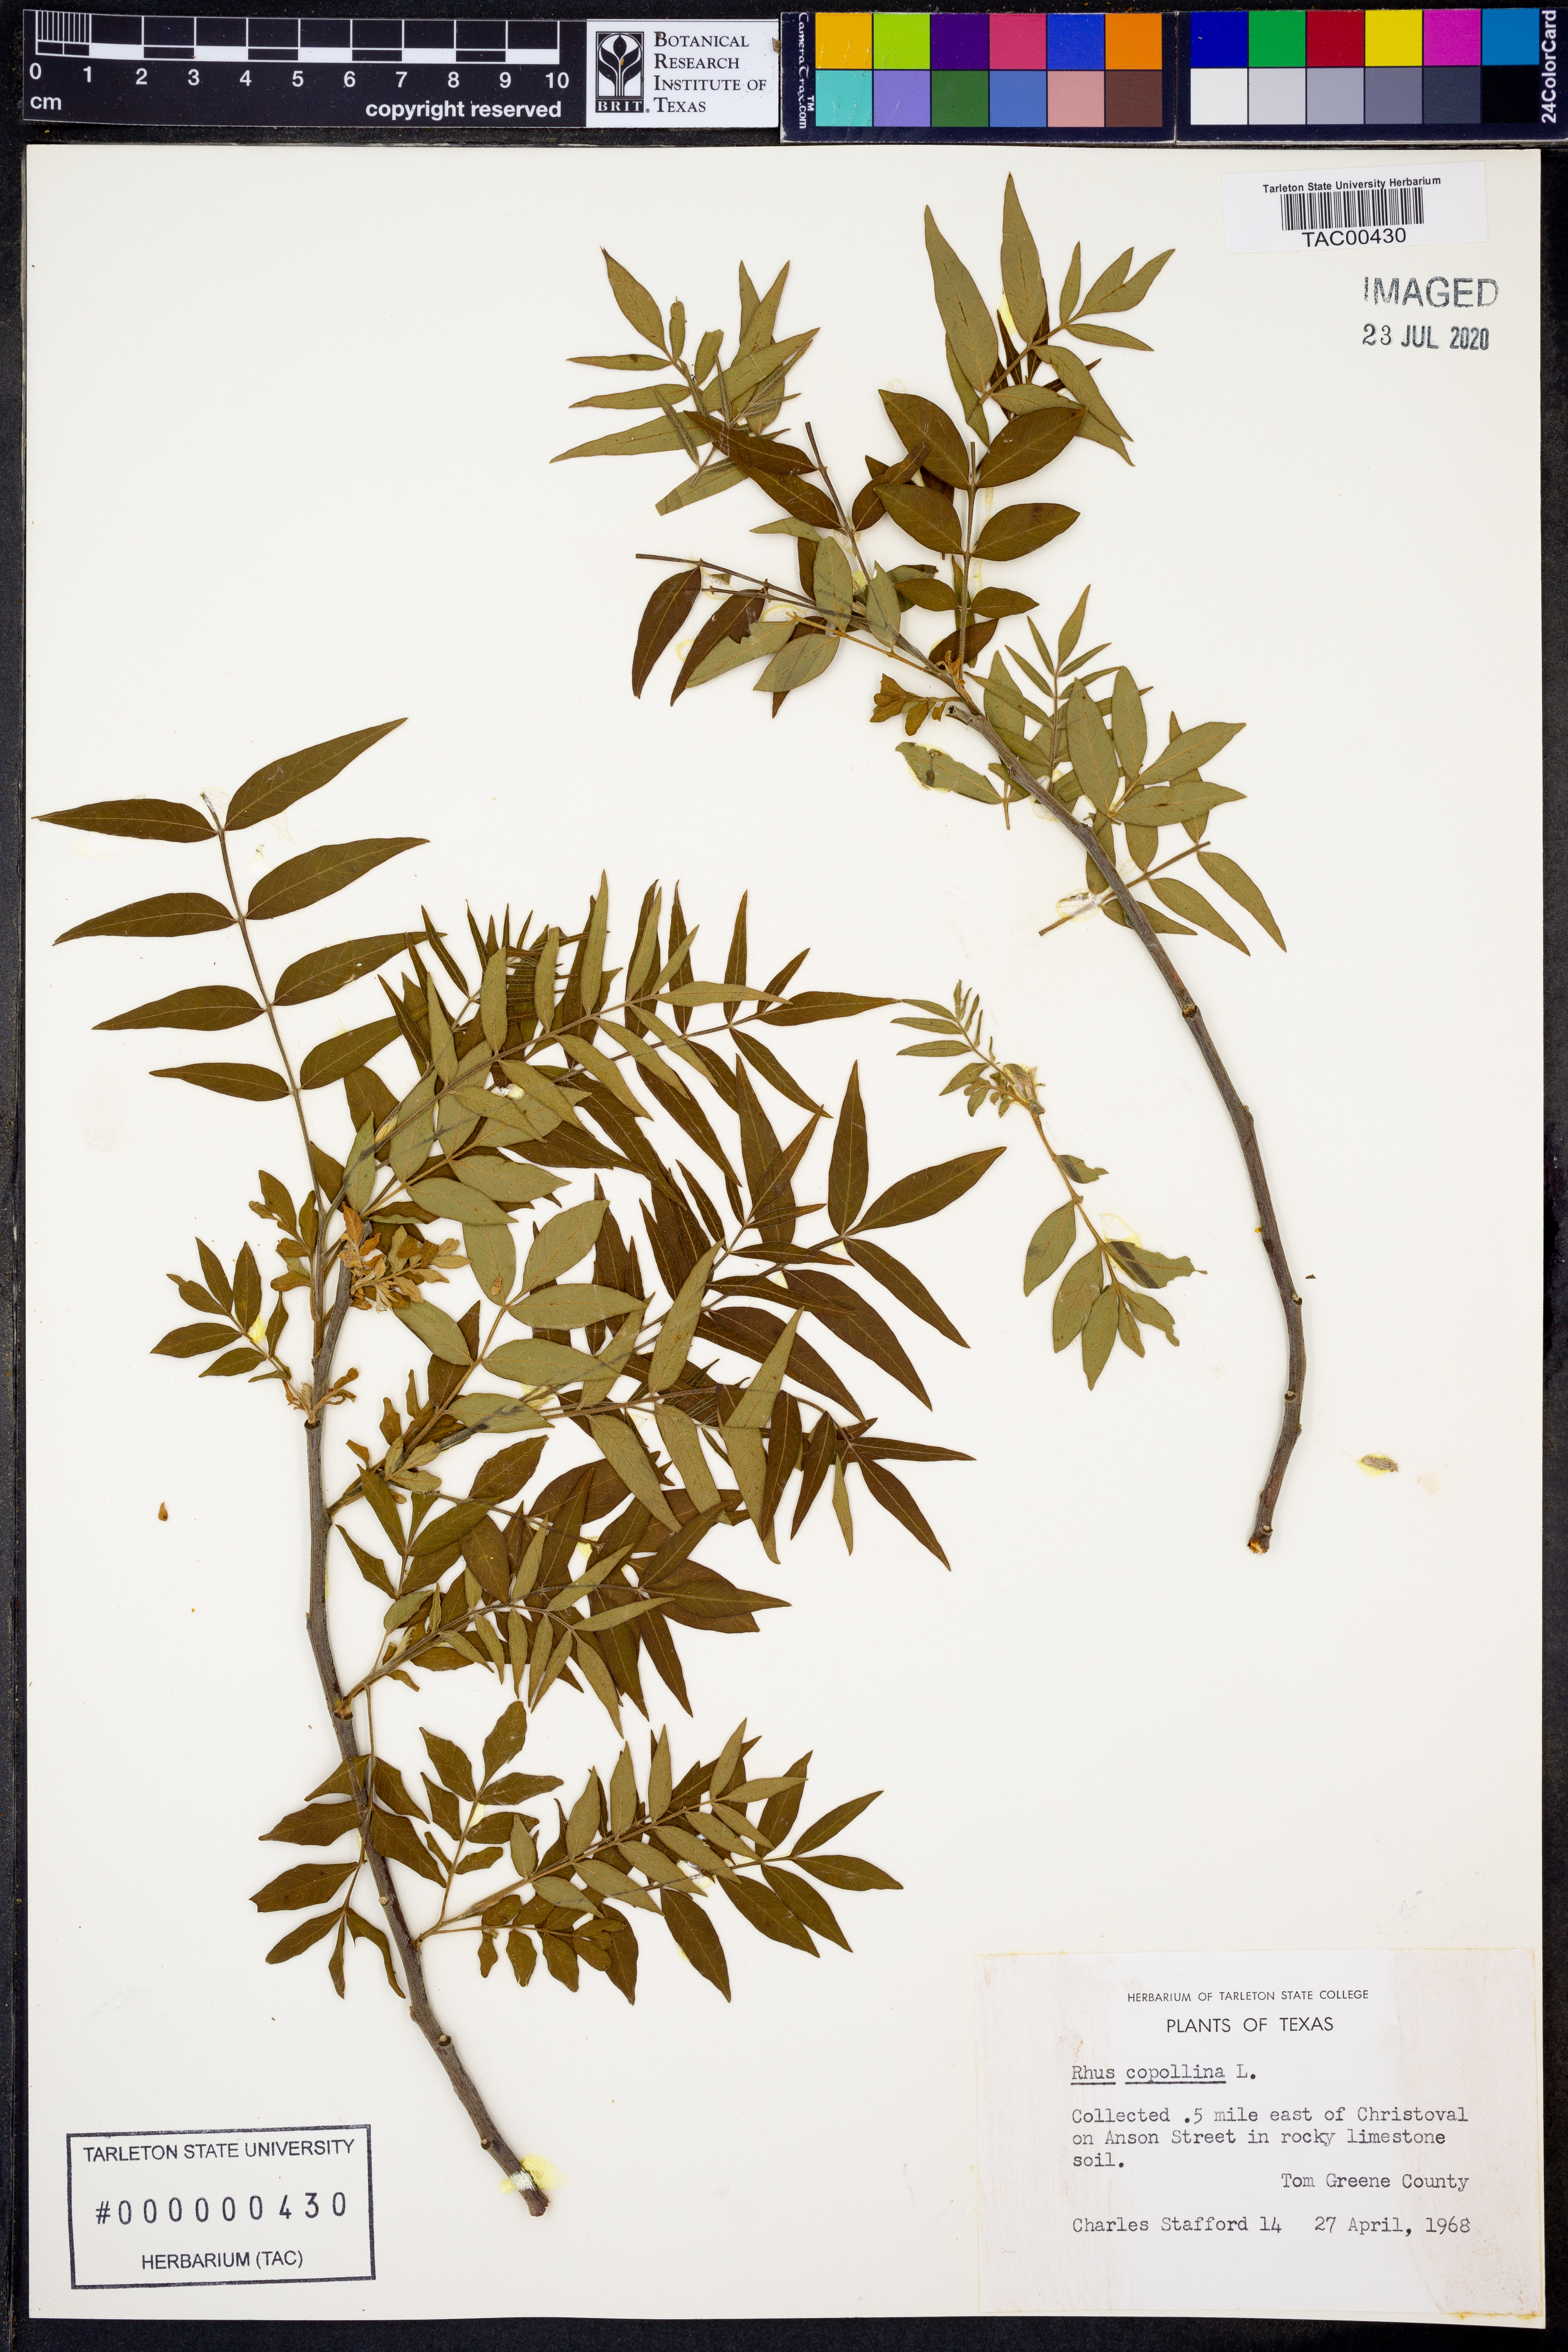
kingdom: Plantae
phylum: Tracheophyta
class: Magnoliopsida
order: Sapindales
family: Anacardiaceae
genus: Rhus
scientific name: Rhus copallina
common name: Shining sumac
